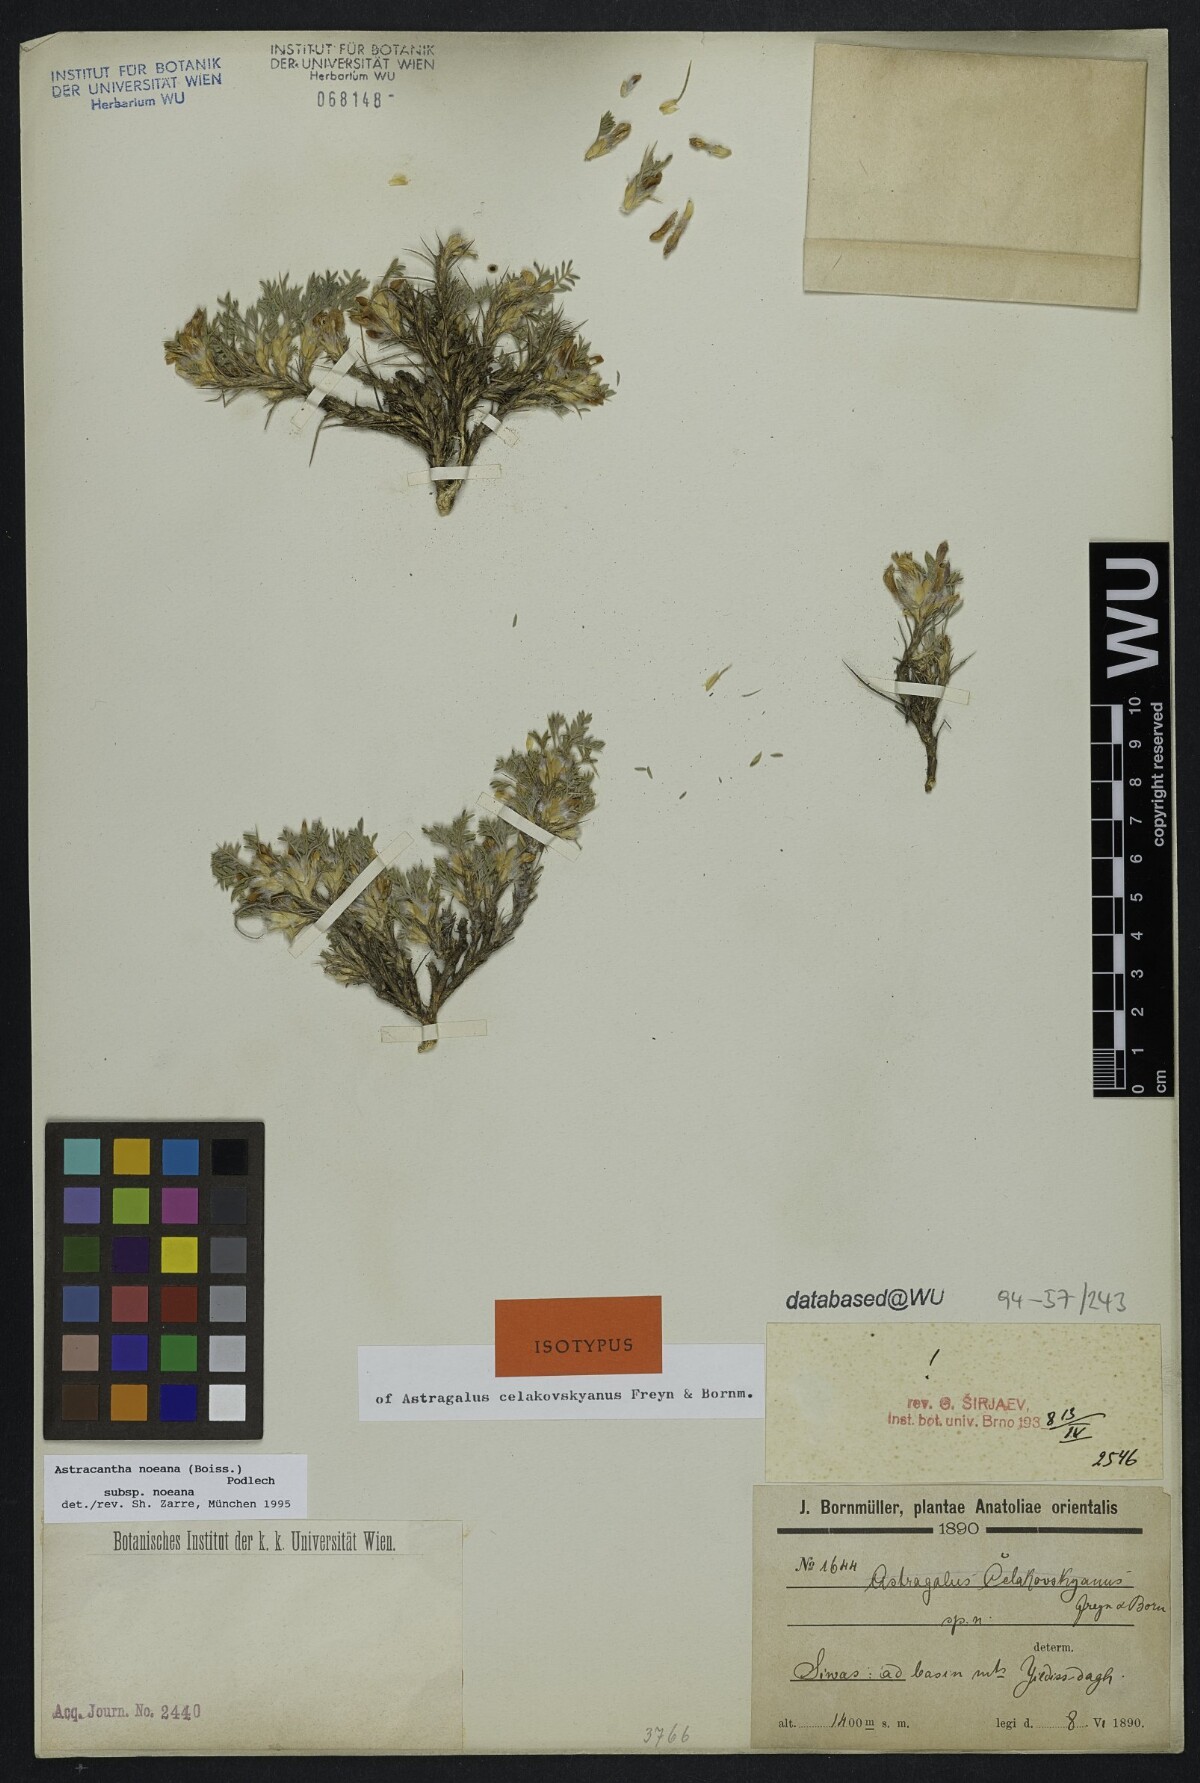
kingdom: Plantae
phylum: Tracheophyta
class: Magnoliopsida
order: Fabales
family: Fabaceae
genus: Astragalus
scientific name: Astragalus noeanus
